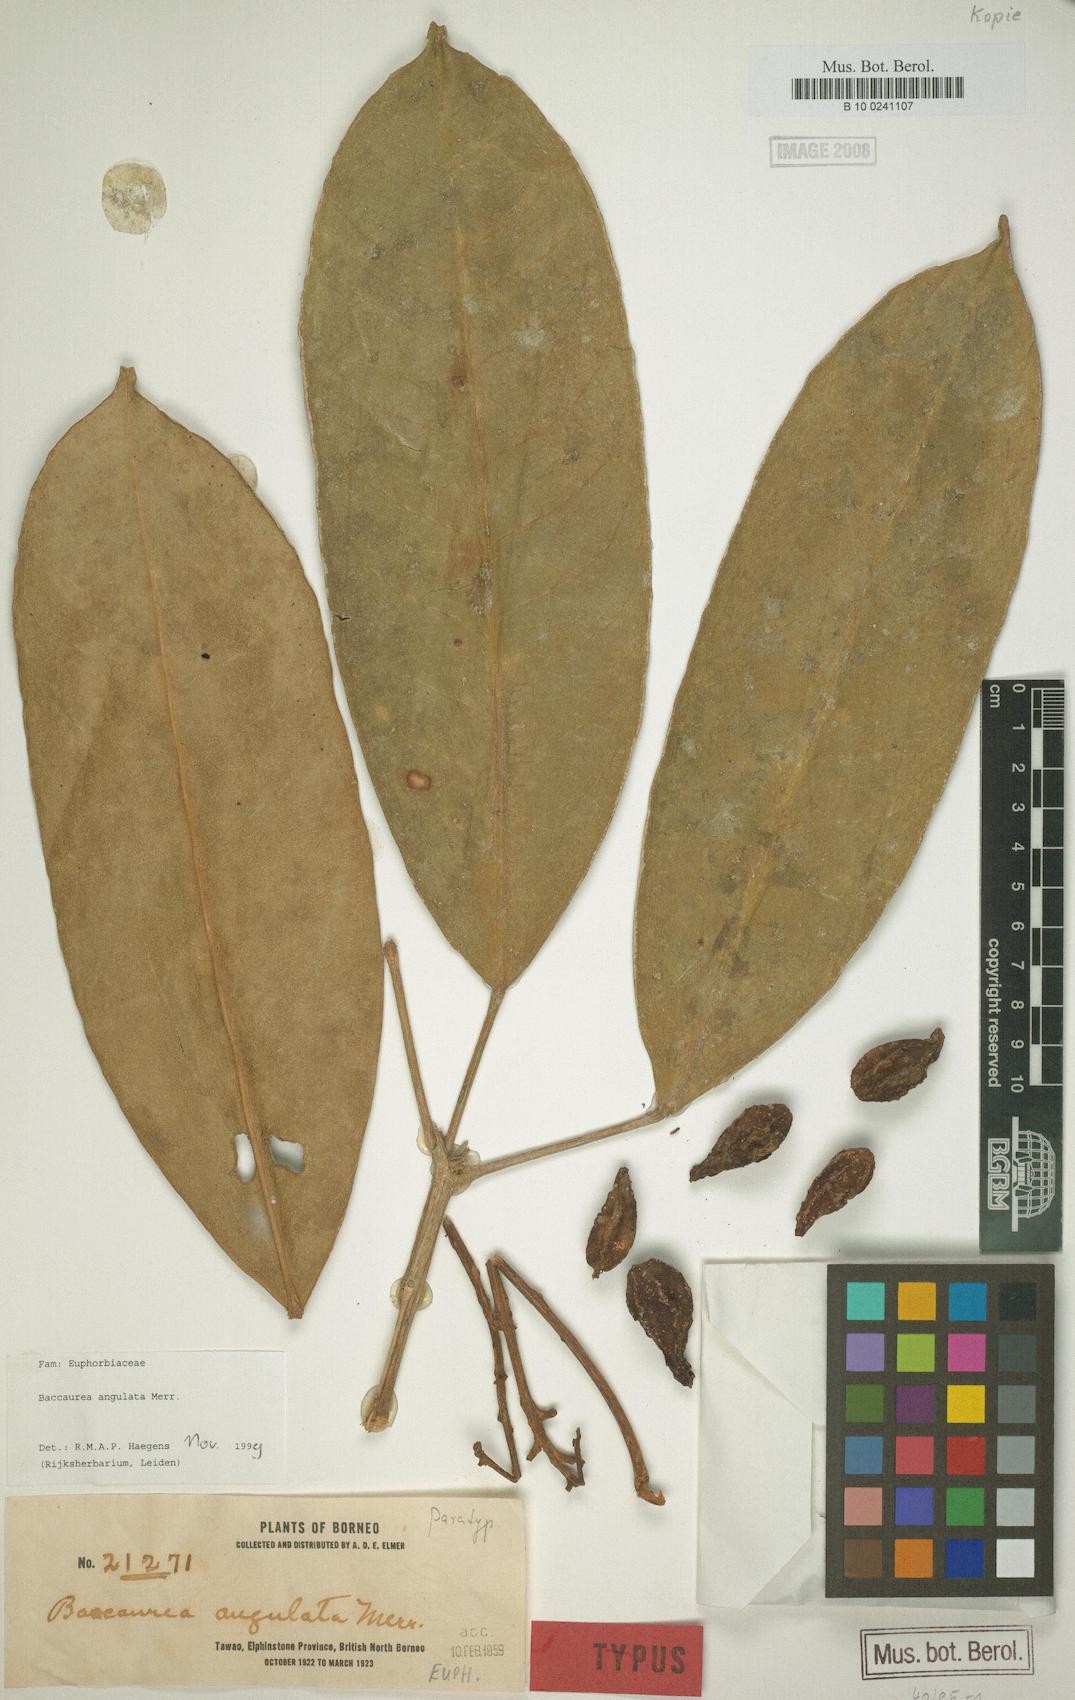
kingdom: Plantae
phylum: Tracheophyta
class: Magnoliopsida
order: Malpighiales
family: Phyllanthaceae
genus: Baccaurea
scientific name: Baccaurea angulata
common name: Red angle tampoi
